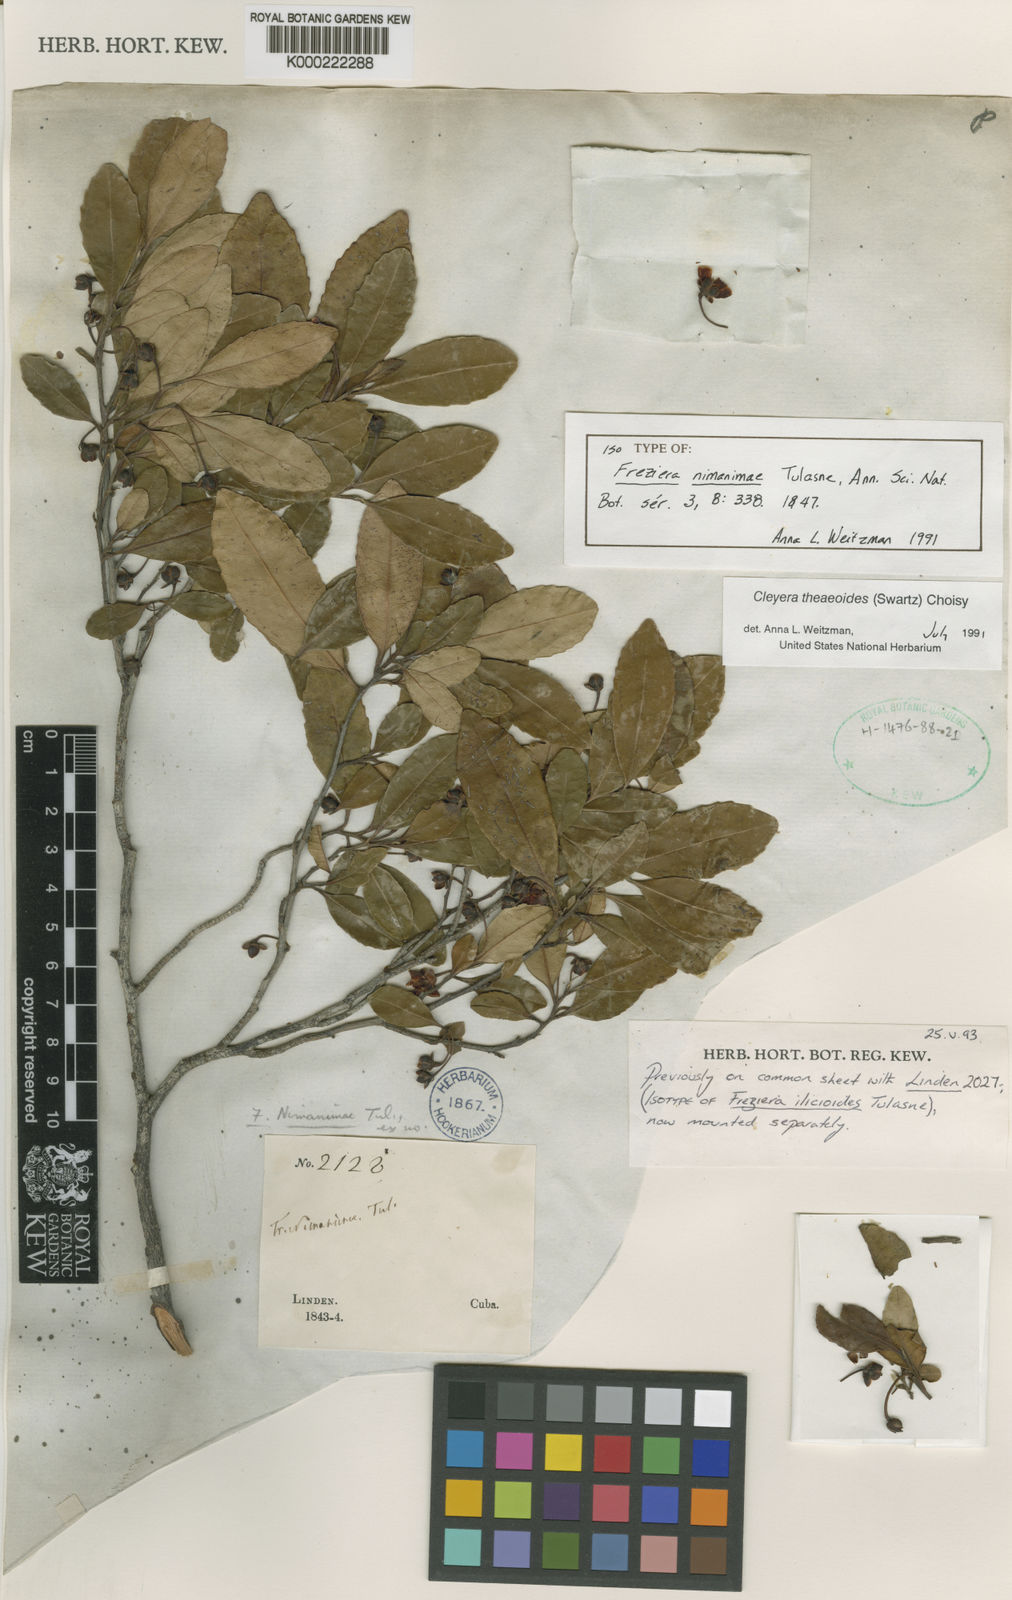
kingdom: Plantae
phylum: Tracheophyta
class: Magnoliopsida
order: Ericales
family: Pentaphylacaceae
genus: Cleyera
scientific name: Cleyera nimanimae
